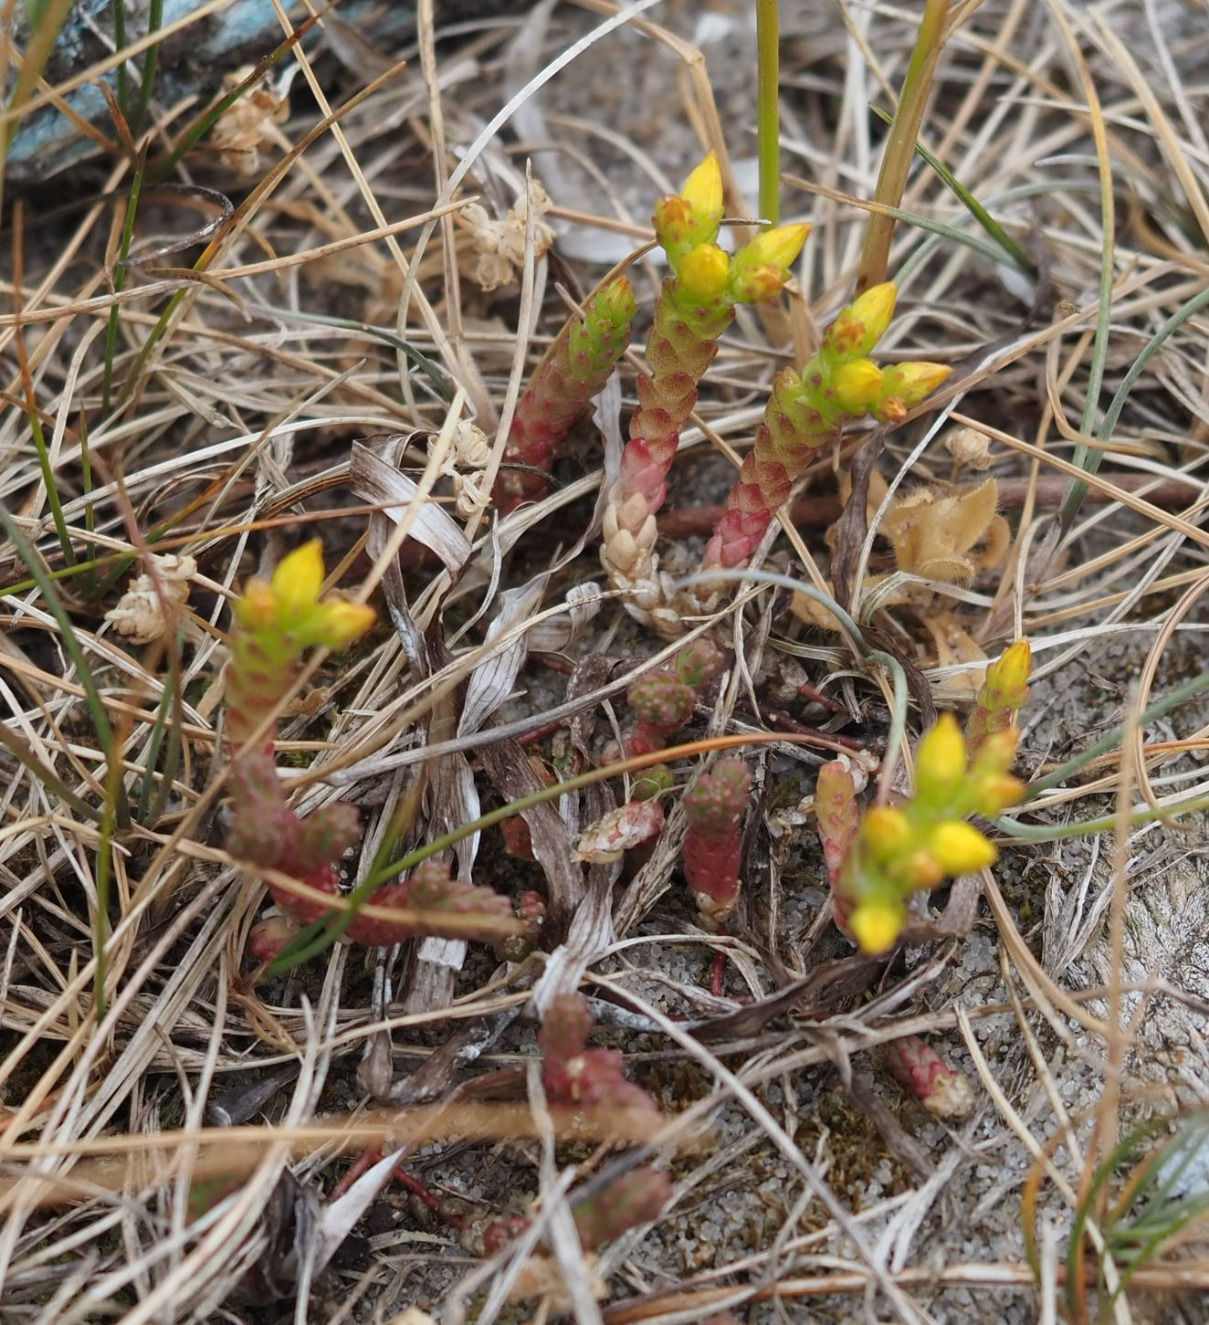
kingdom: Plantae
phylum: Tracheophyta
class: Magnoliopsida
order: Saxifragales
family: Crassulaceae
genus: Sedum
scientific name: Sedum acre
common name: Bidende stenurt
